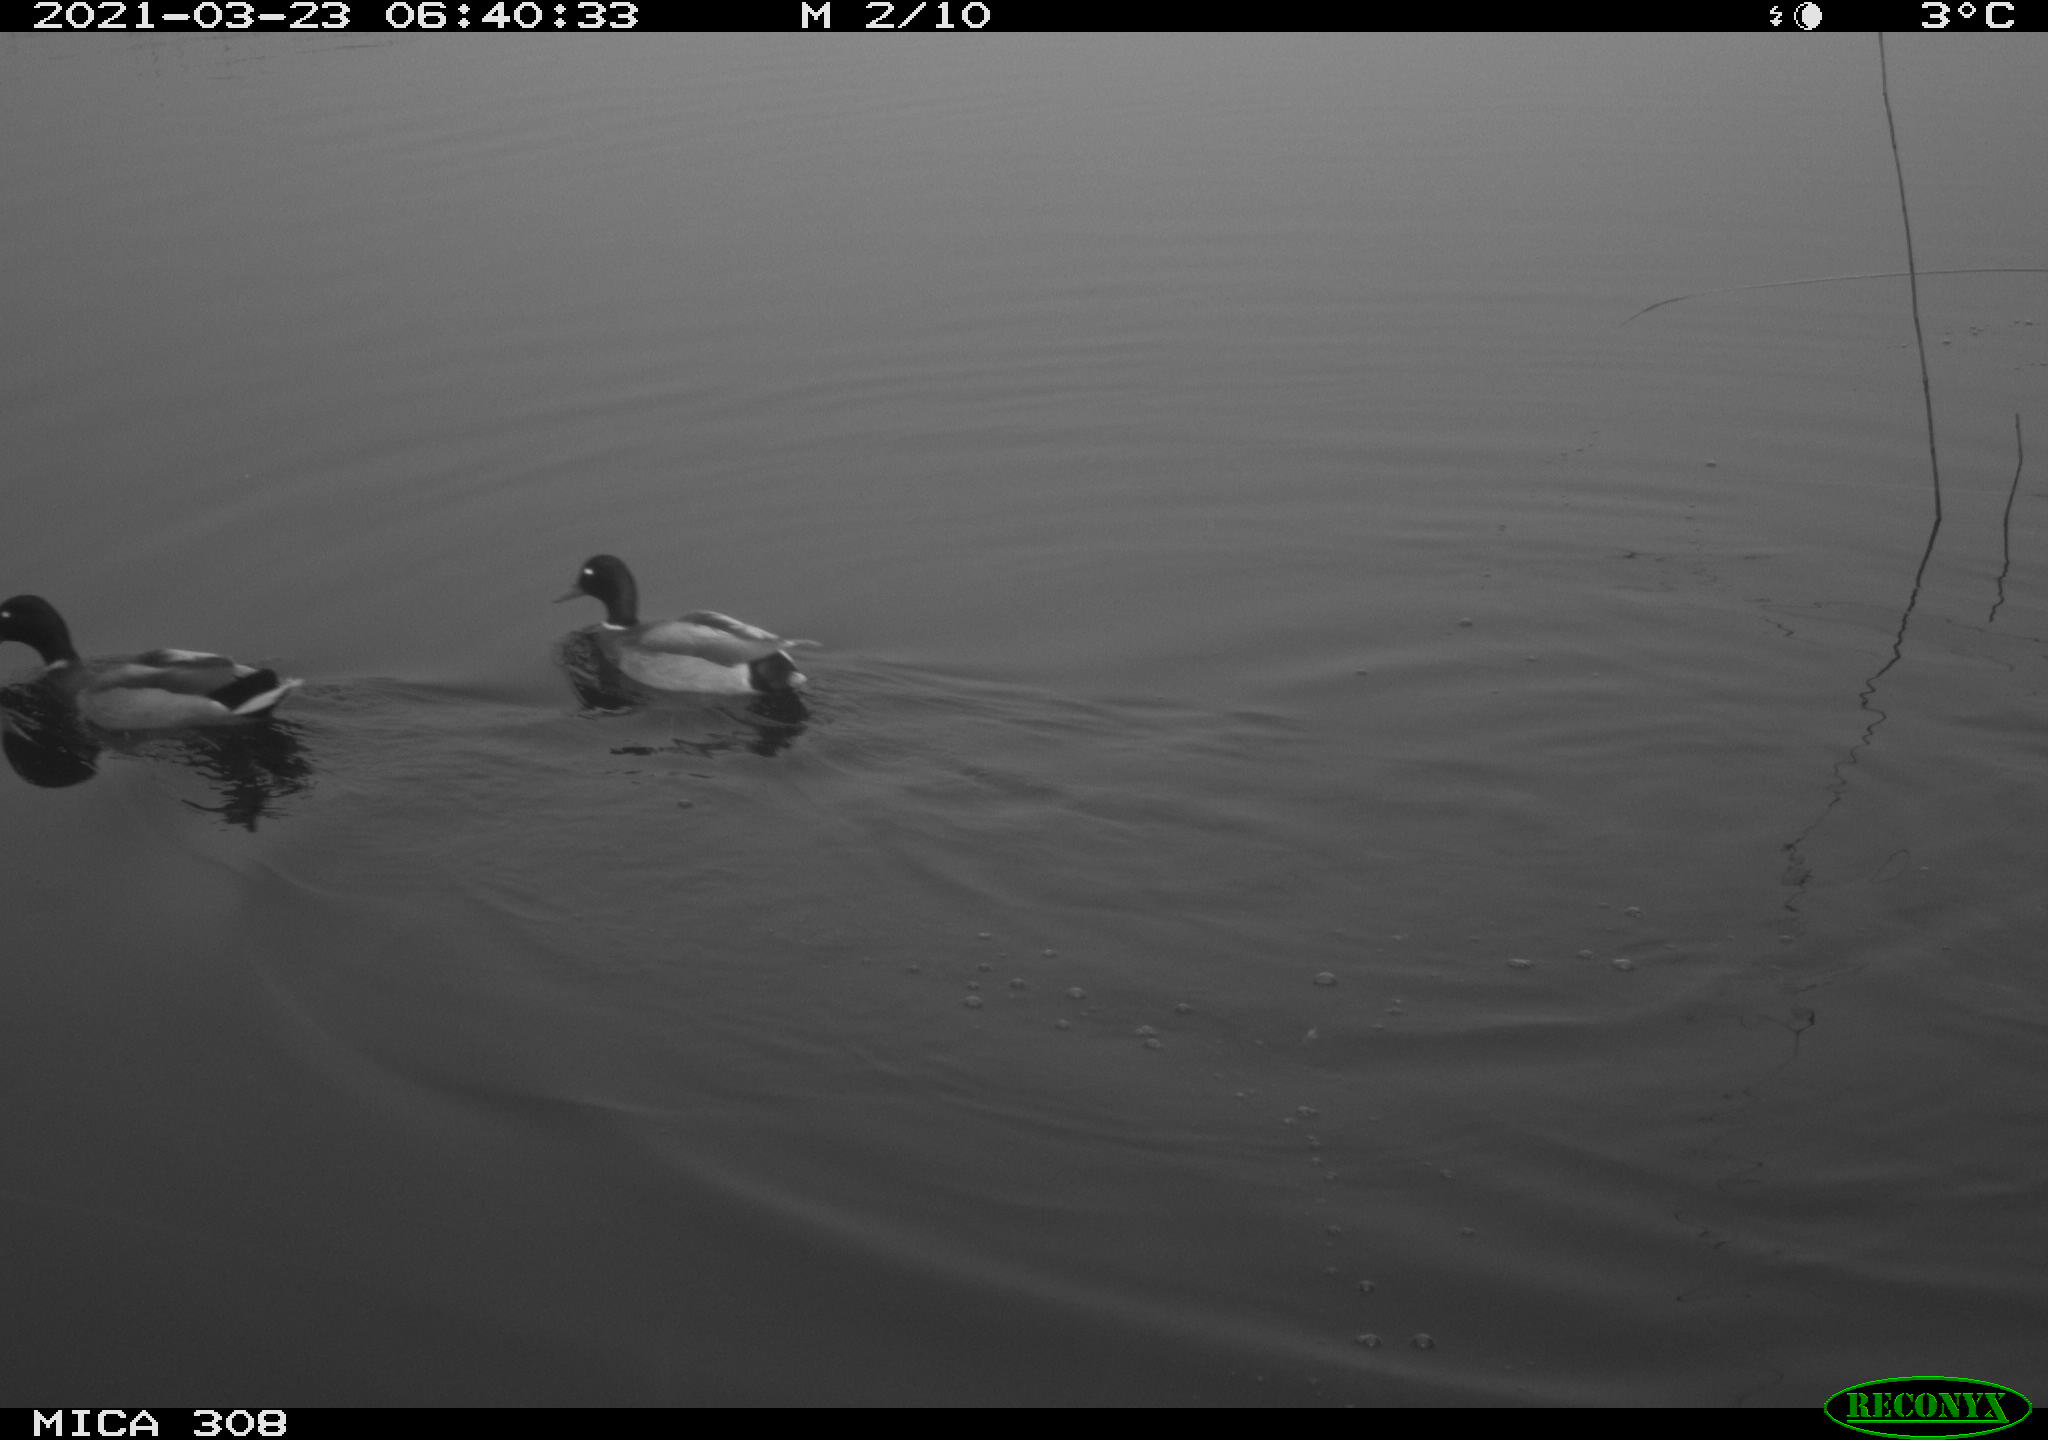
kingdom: Animalia
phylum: Chordata
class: Aves
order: Anseriformes
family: Anatidae
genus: Anas
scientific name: Anas platyrhynchos
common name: Mallard
